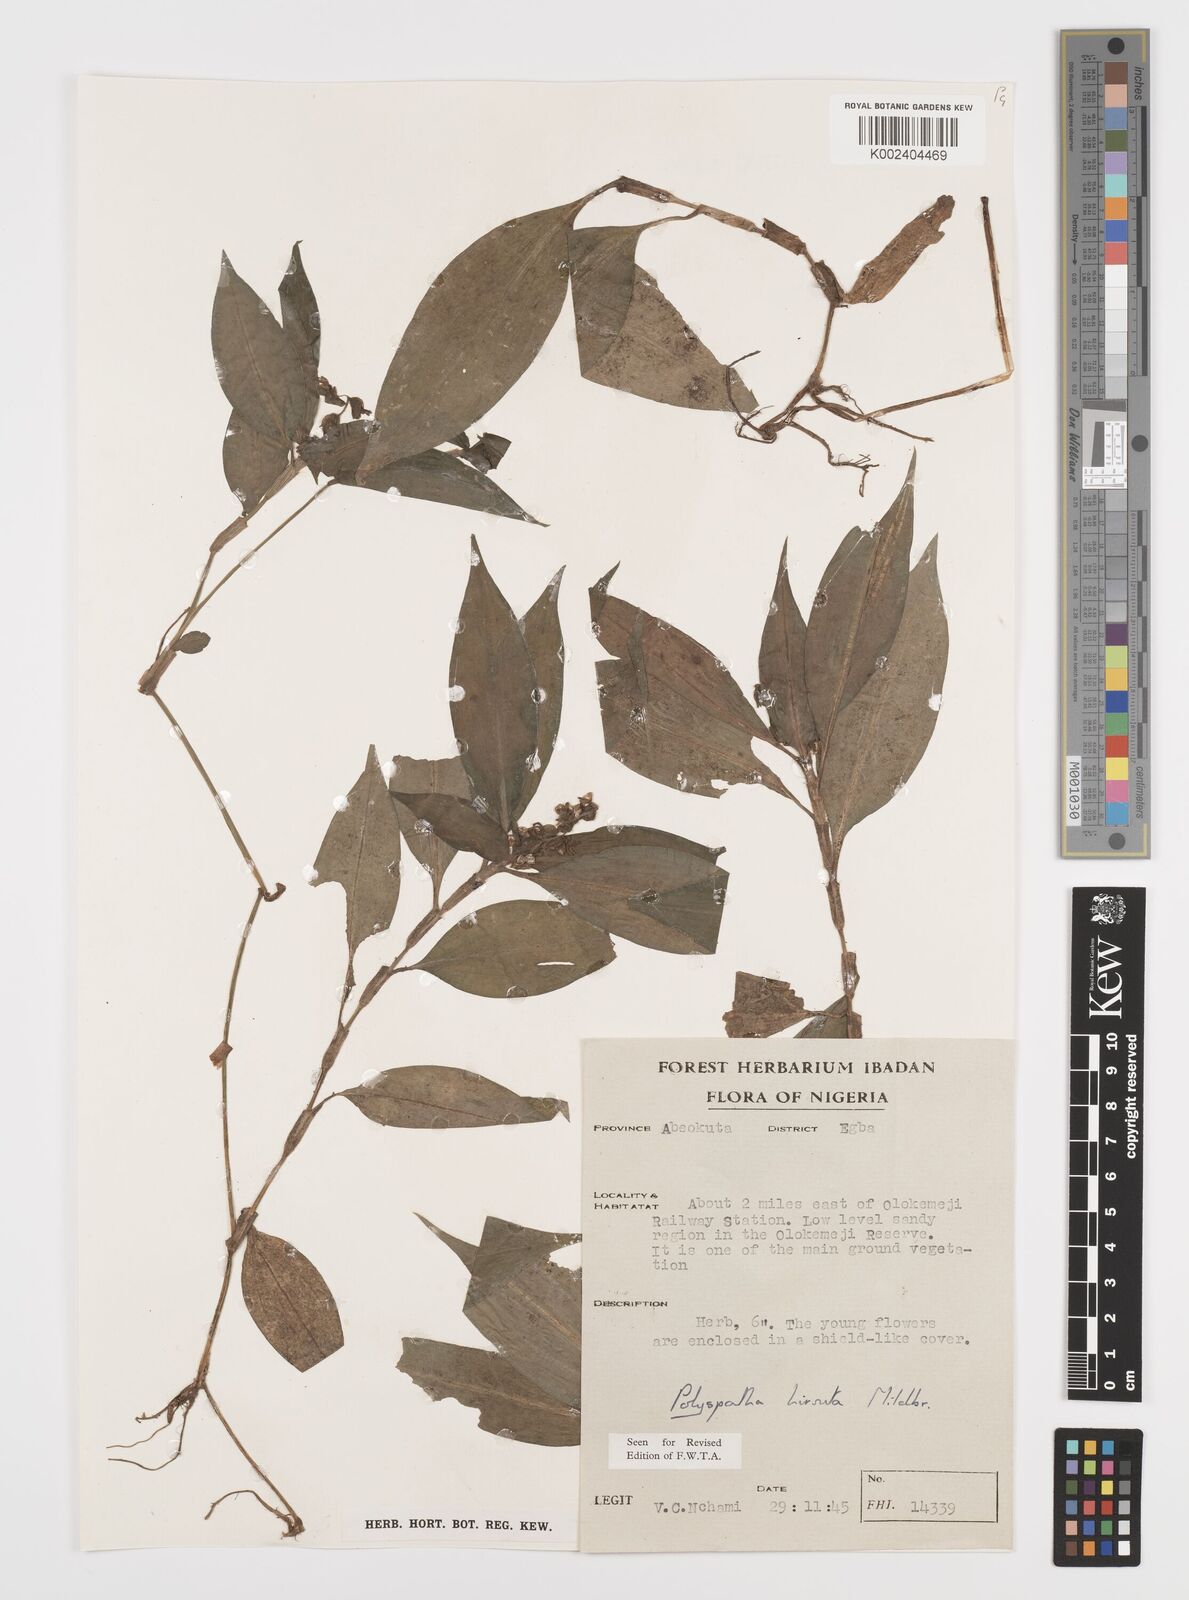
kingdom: Plantae
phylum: Tracheophyta
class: Liliopsida
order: Commelinales
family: Commelinaceae
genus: Polyspatha
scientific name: Polyspatha hirsuta
